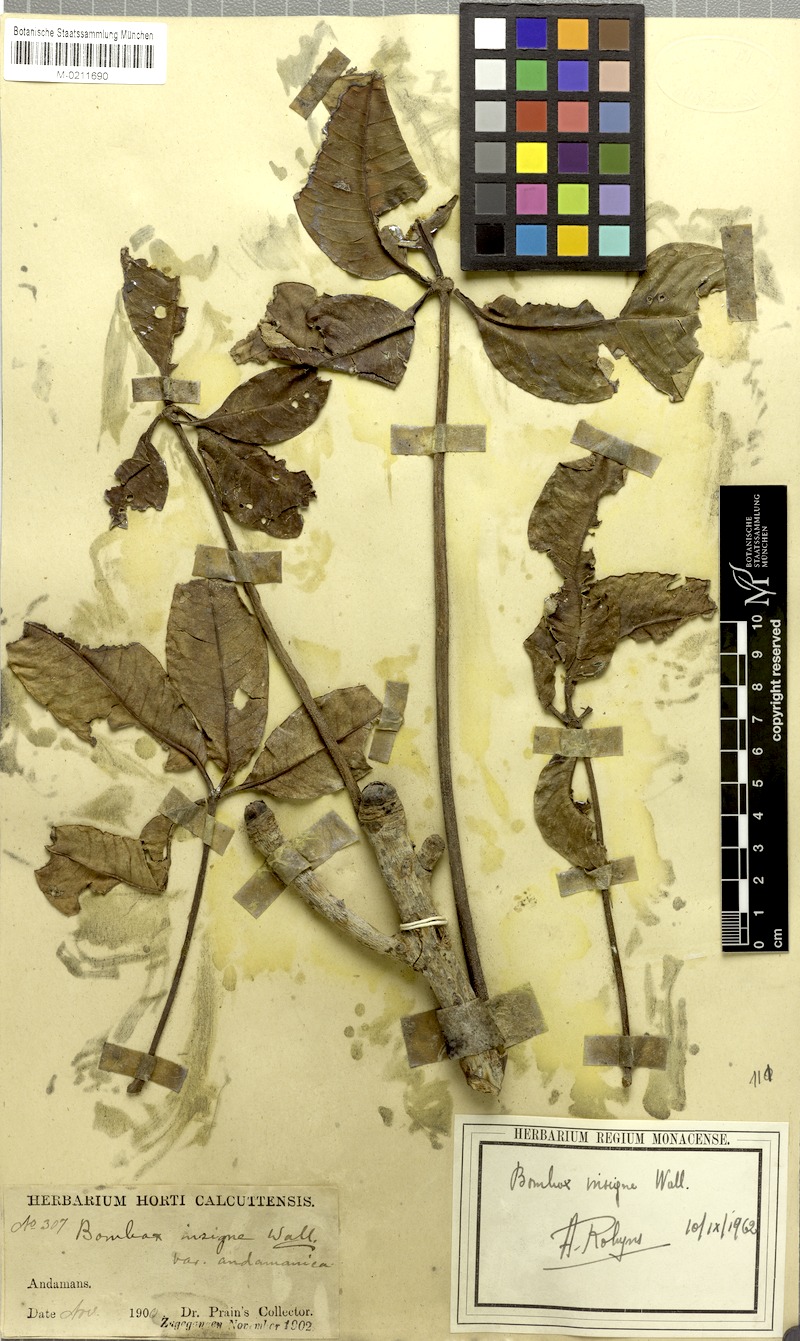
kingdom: Plantae
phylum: Tracheophyta
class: Magnoliopsida
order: Malvales
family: Malvaceae
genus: Bombax
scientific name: Bombax insigne
